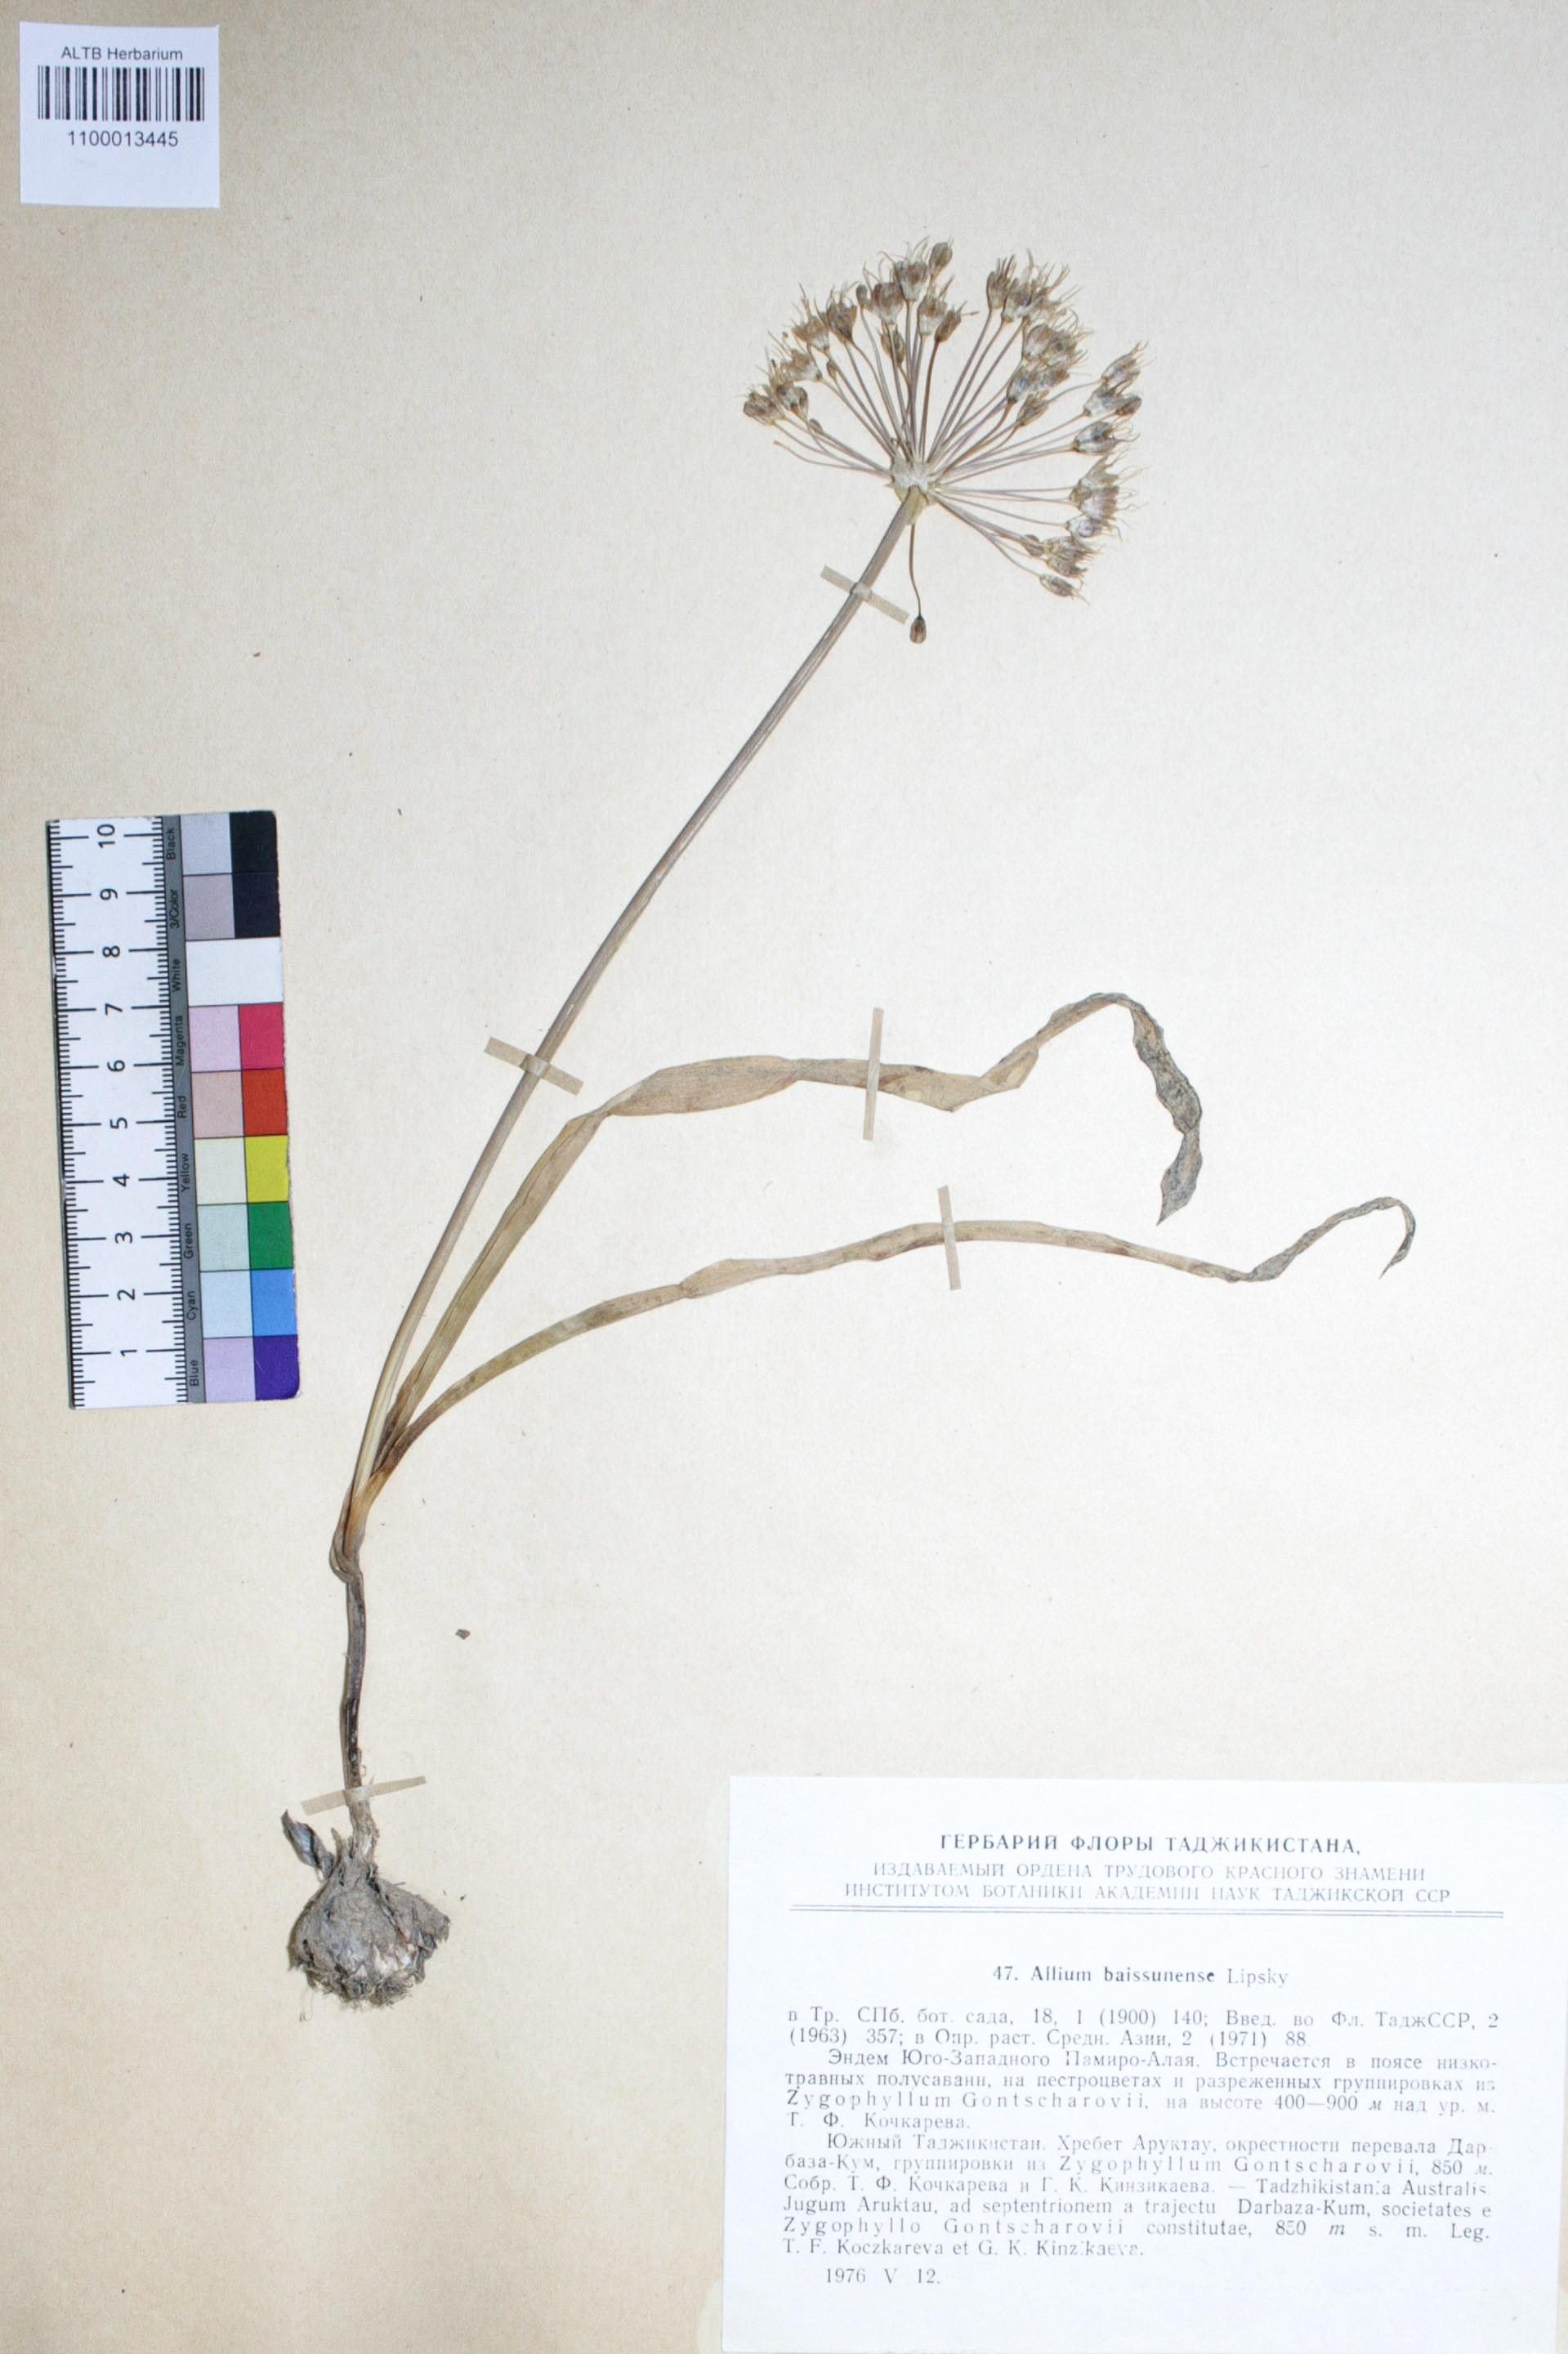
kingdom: Plantae
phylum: Tracheophyta
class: Liliopsida
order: Asparagales
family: Amaryllidaceae
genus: Allium
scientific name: Allium caspium
